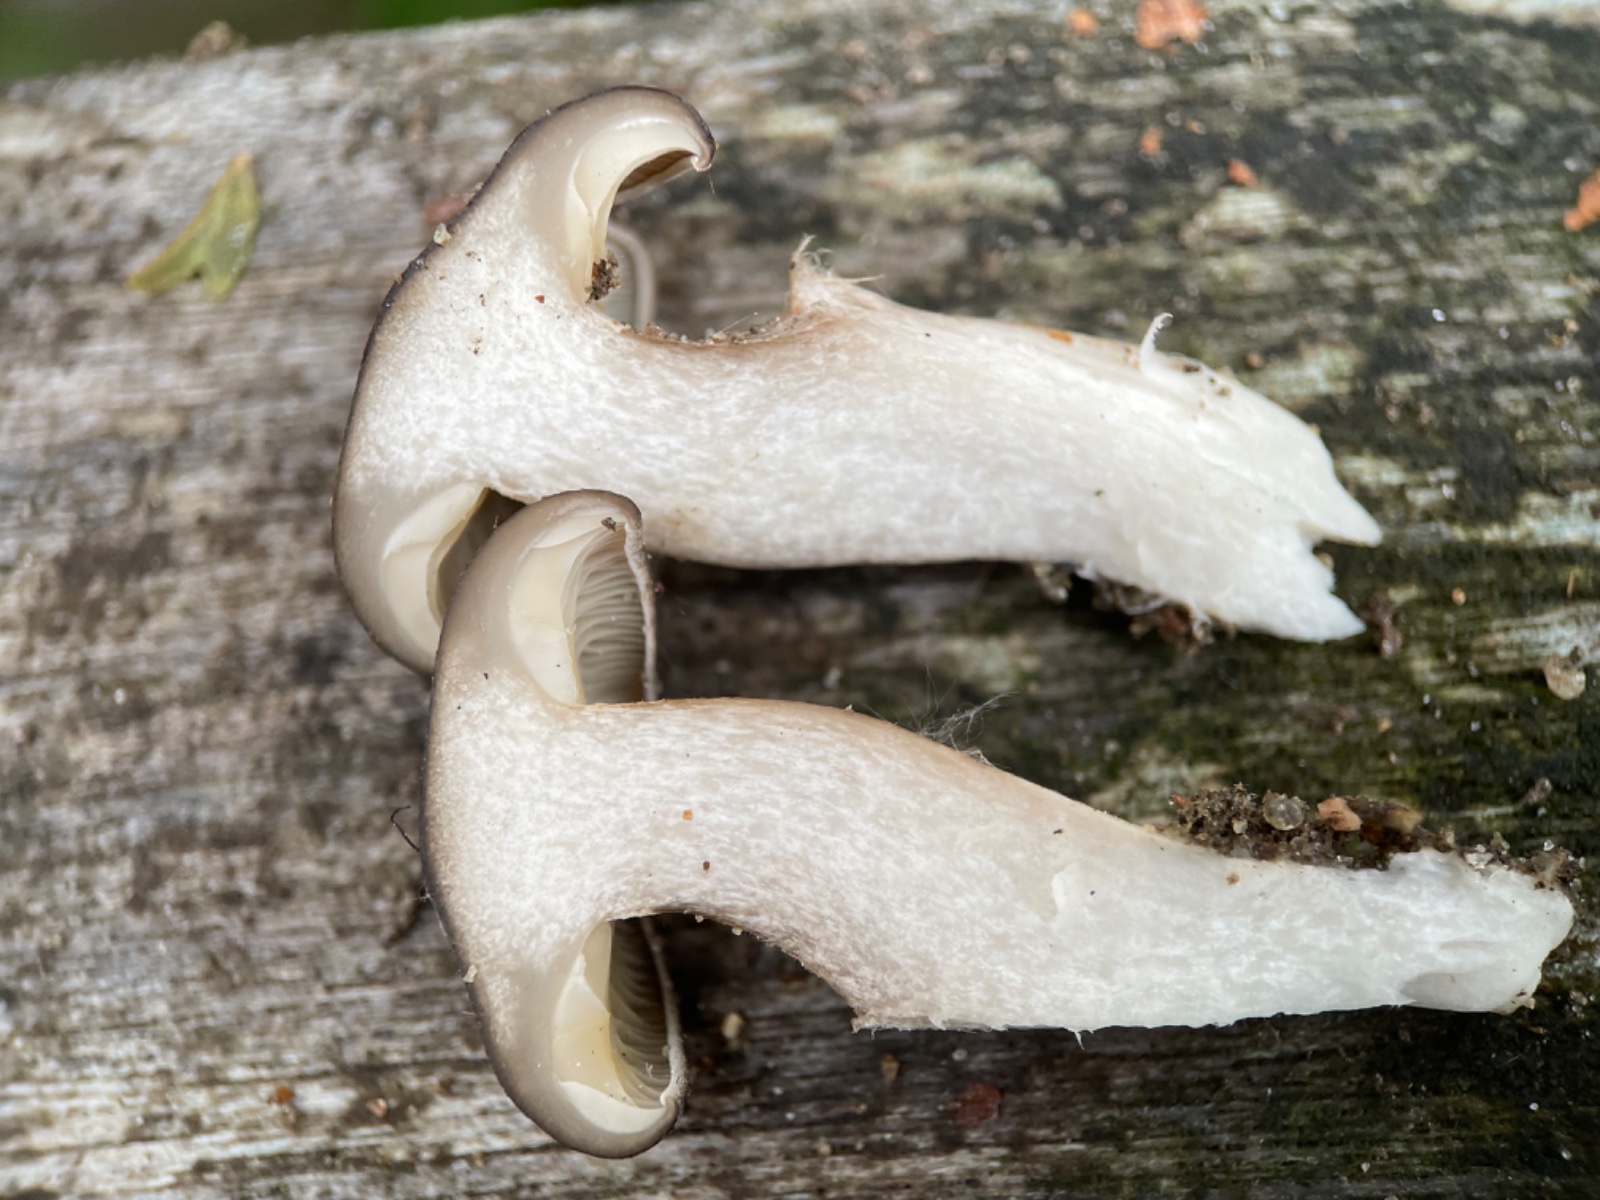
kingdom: Fungi
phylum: Basidiomycota
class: Agaricomycetes
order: Agaricales
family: Lyophyllaceae
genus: Lyophyllum
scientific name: Lyophyllum decastes
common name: røggrå gråblad
